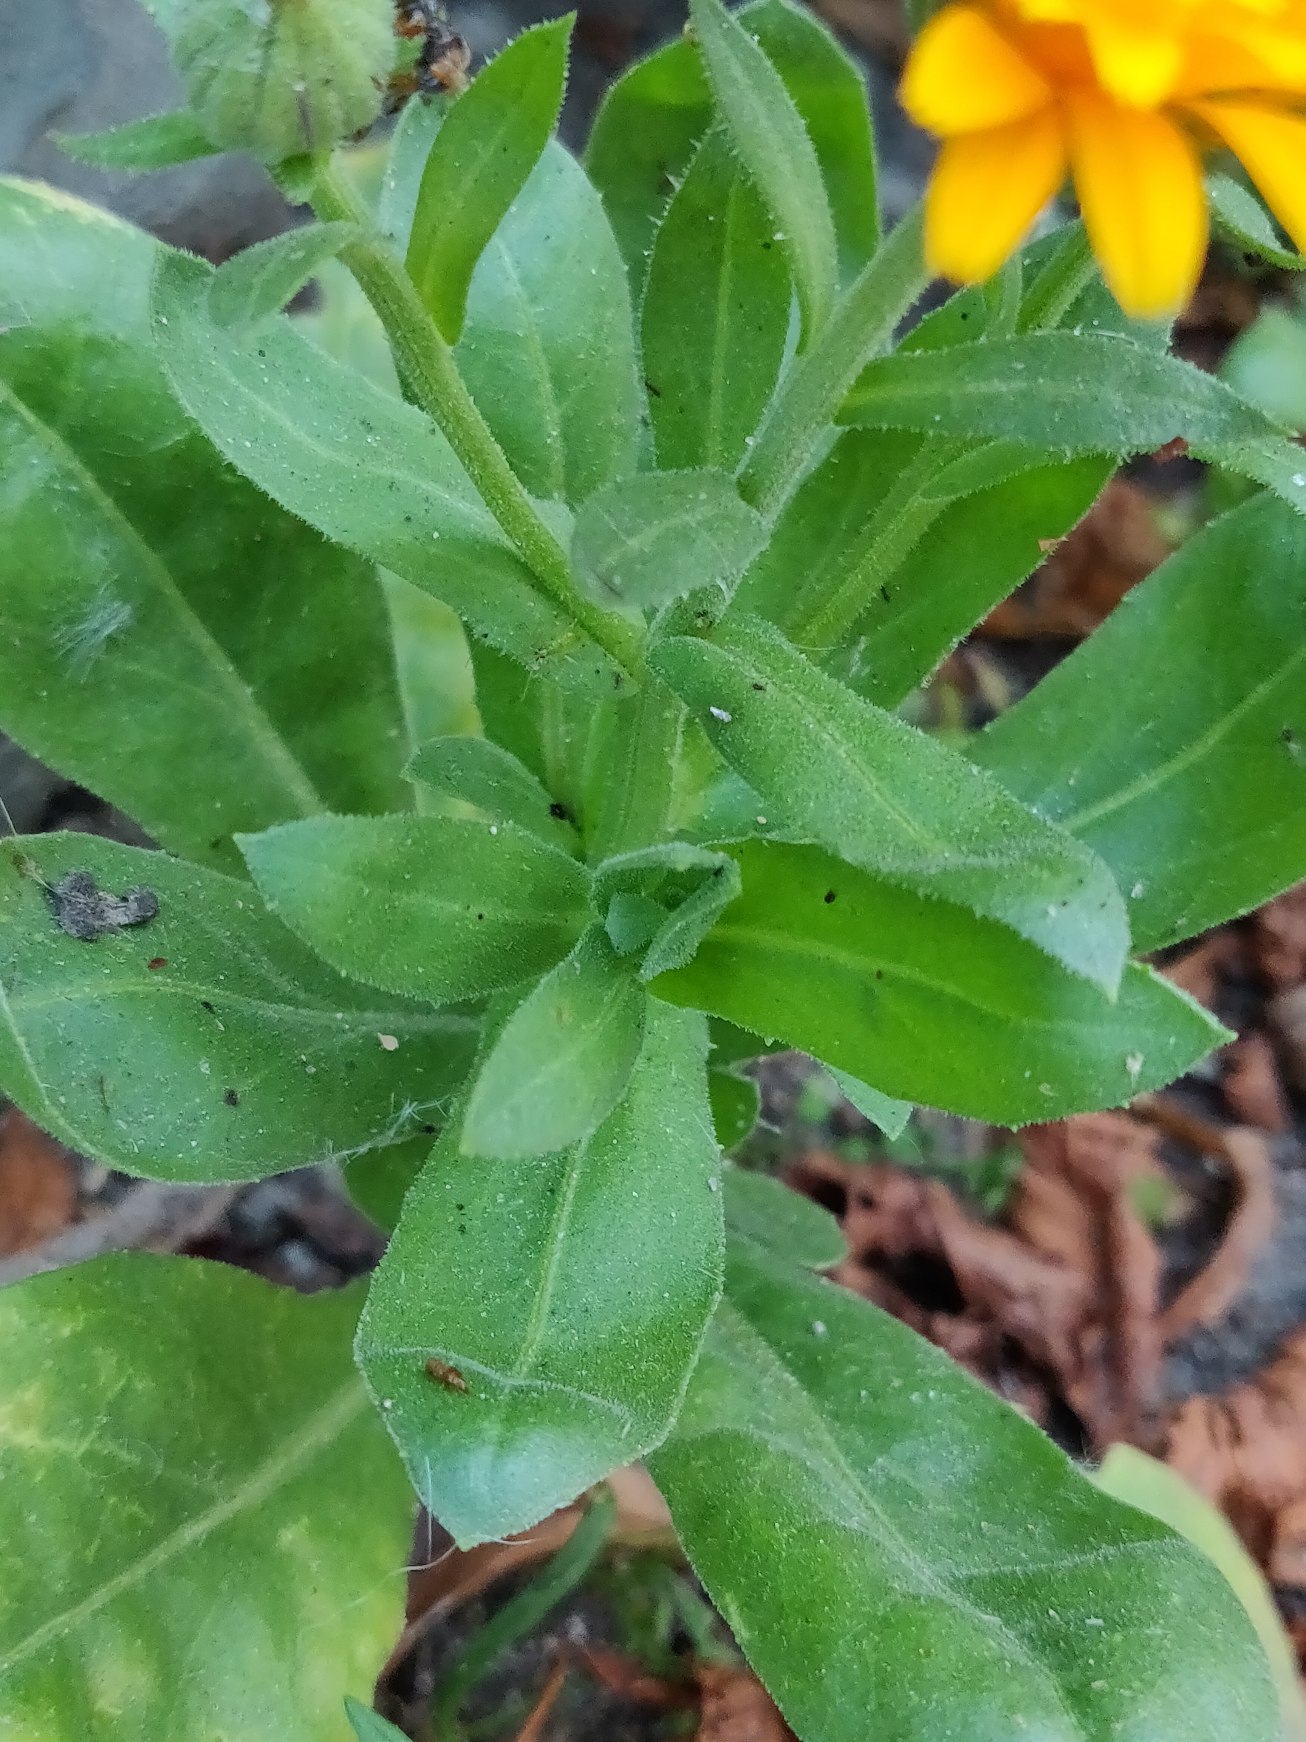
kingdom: Plantae
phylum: Tracheophyta
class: Magnoliopsida
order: Asterales
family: Asteraceae
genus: Calendula
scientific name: Calendula officinalis
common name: Have-morgenfrue
